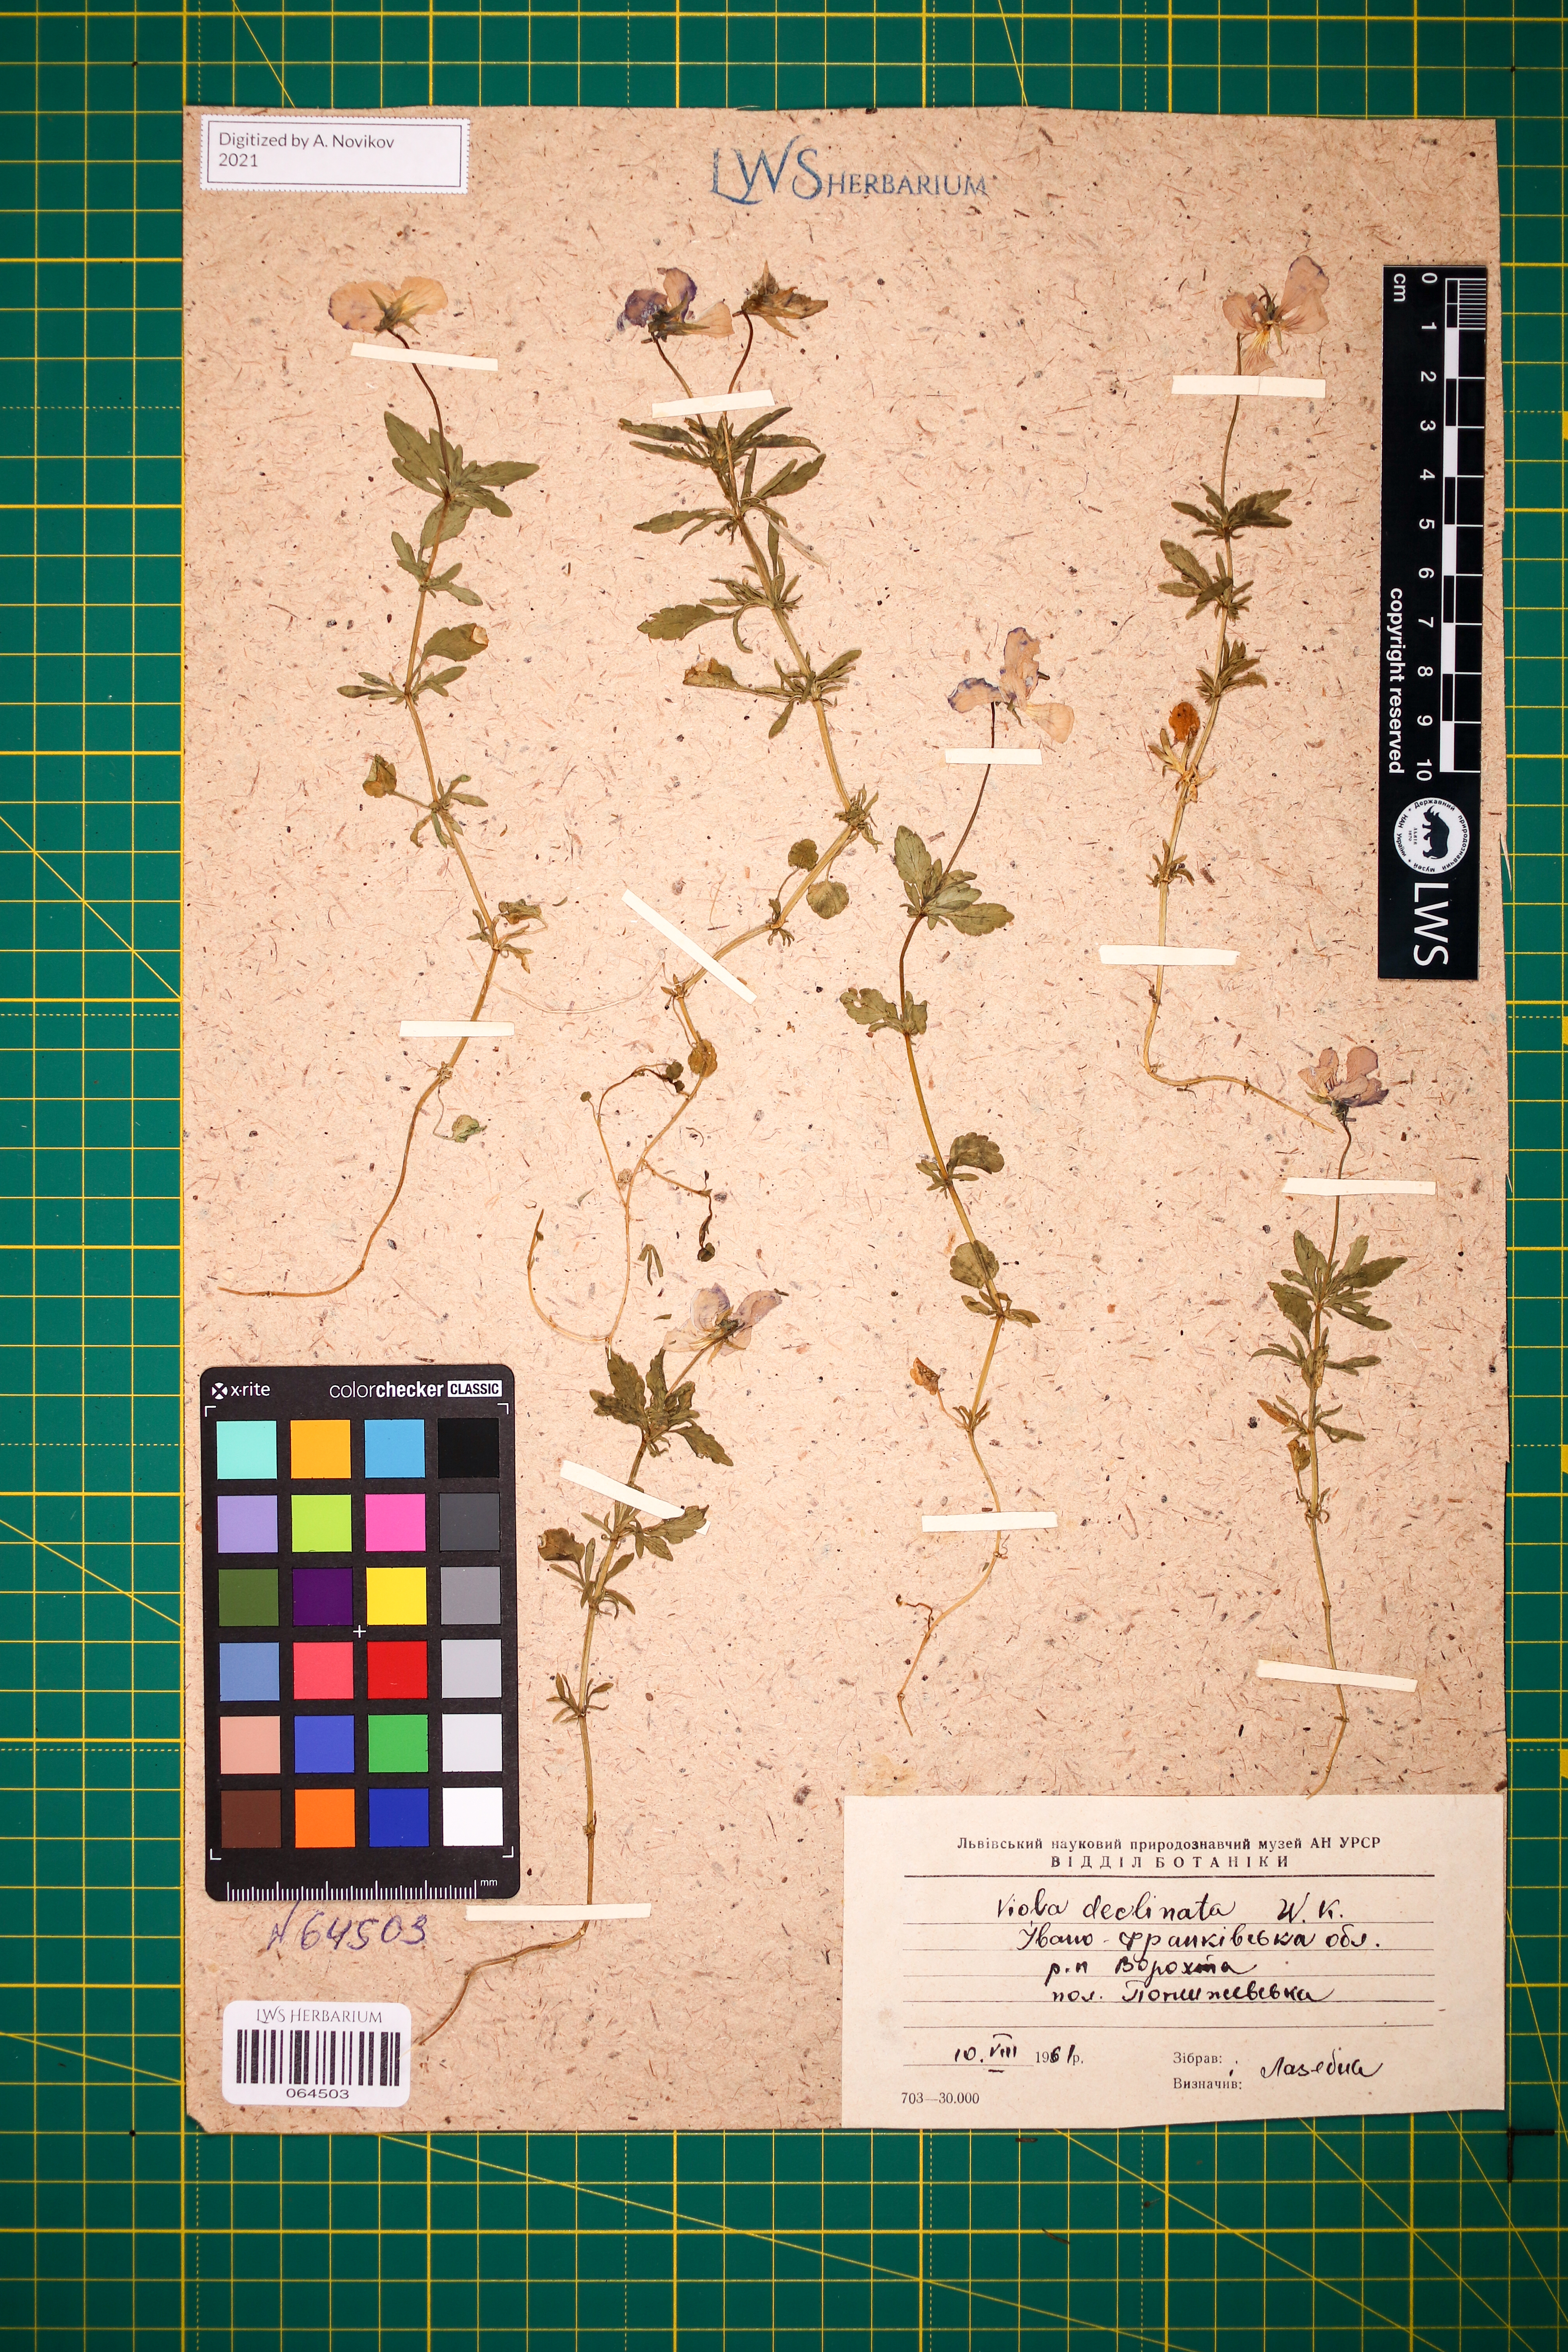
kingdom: Plantae
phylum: Tracheophyta
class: Magnoliopsida
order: Malpighiales
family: Violaceae
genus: Viola
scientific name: Viola declinata
